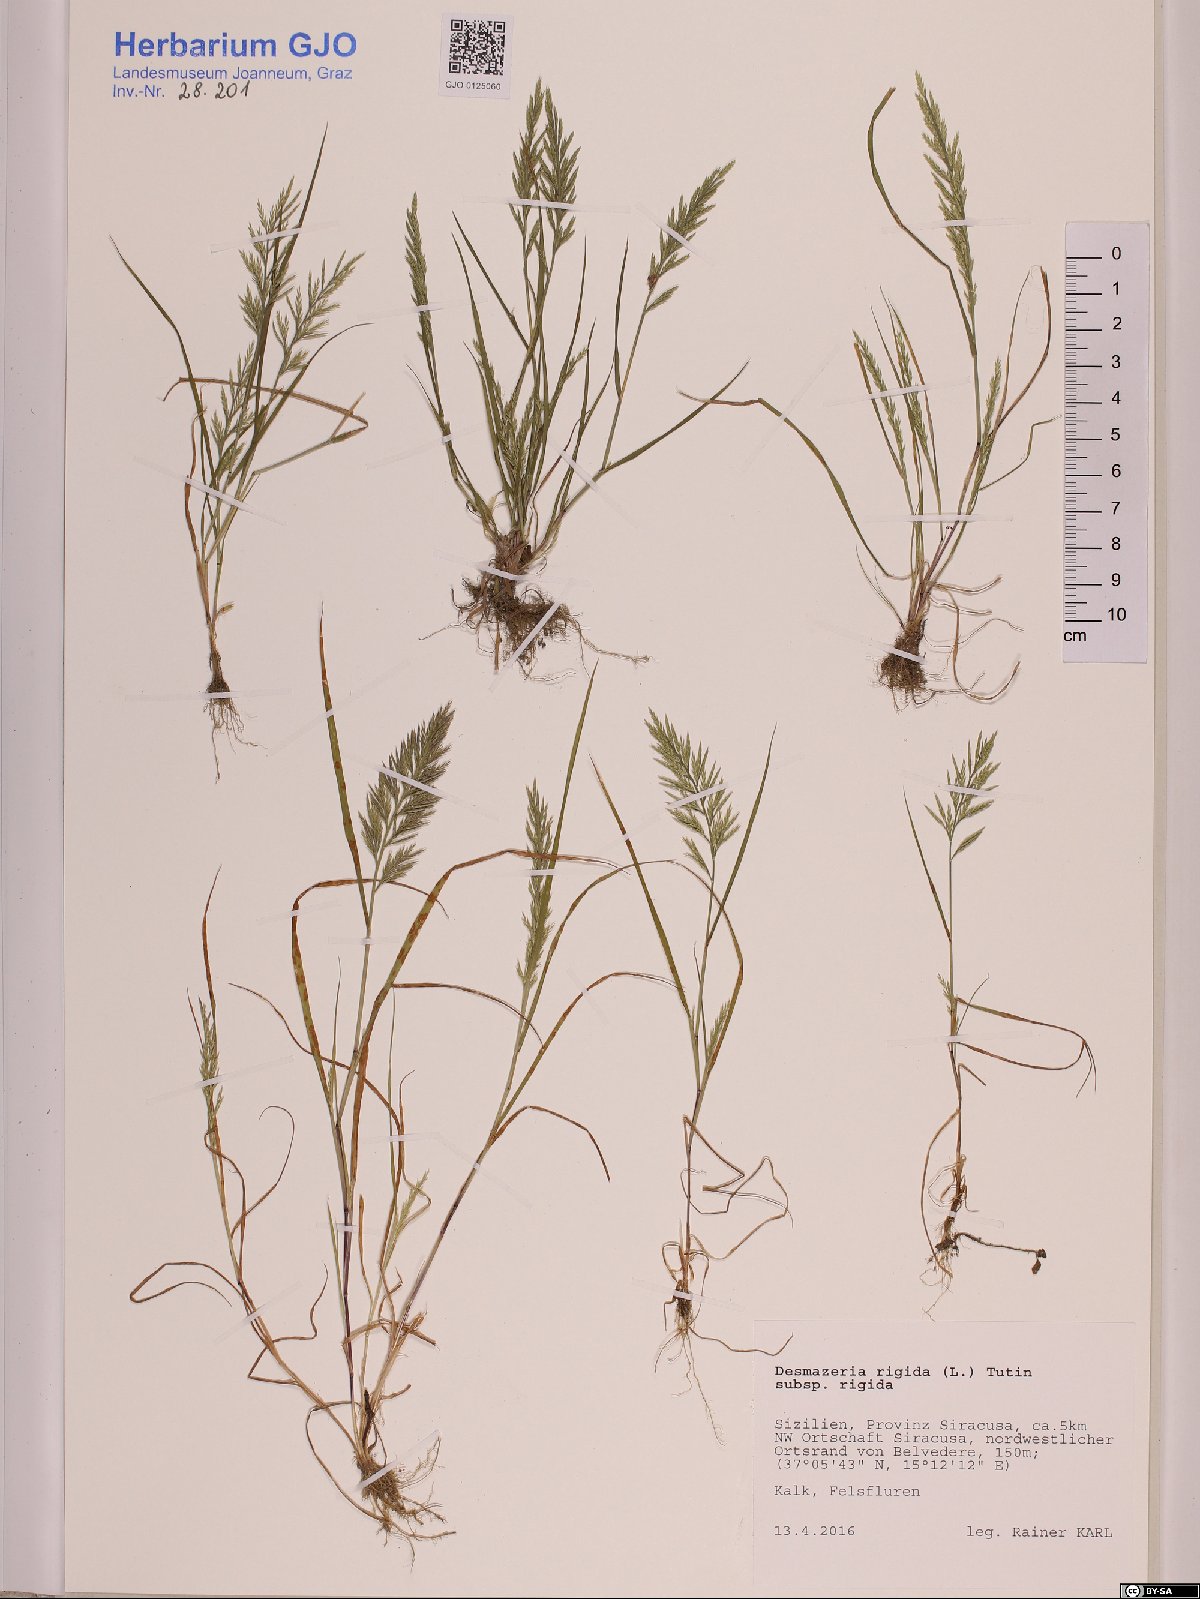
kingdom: Plantae
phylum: Tracheophyta
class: Liliopsida
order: Poales
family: Poaceae
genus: Catapodium
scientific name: Catapodium rigidum
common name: Fern-grass
